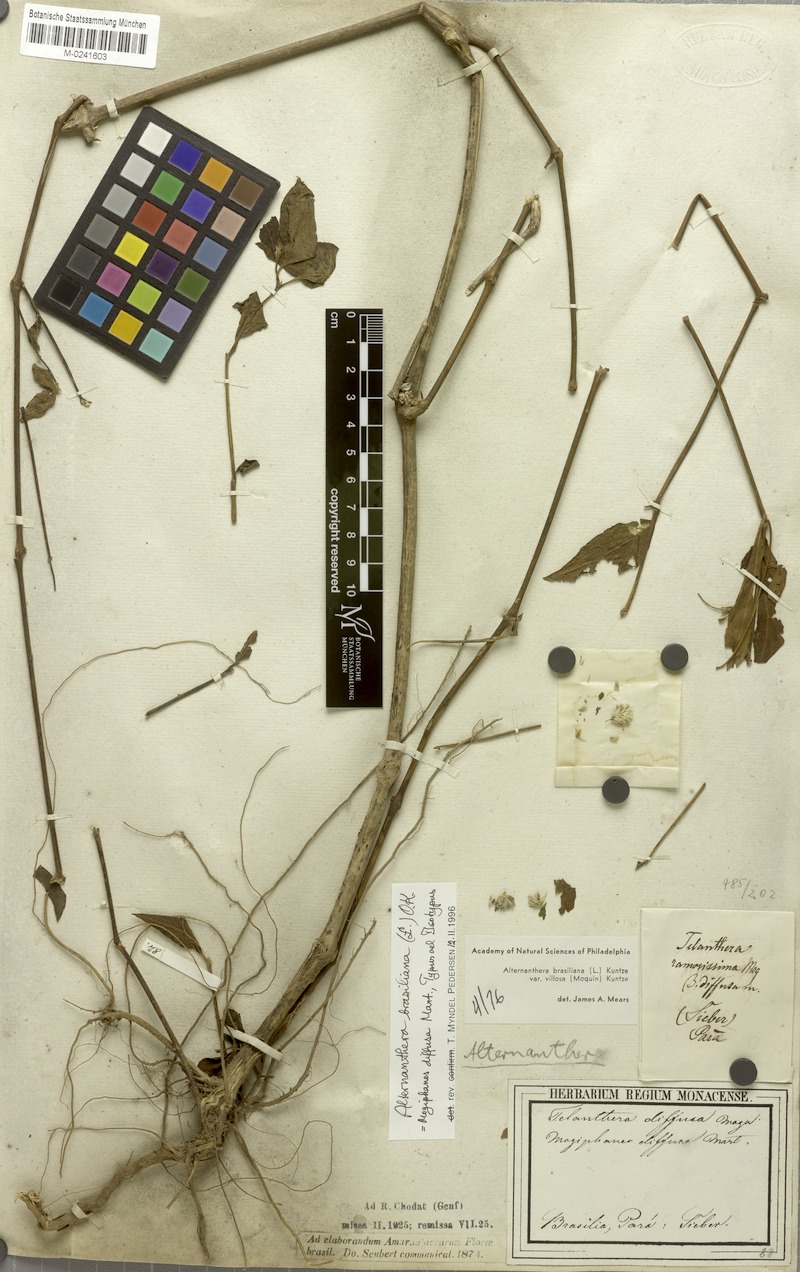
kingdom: Plantae
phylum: Tracheophyta
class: Magnoliopsida
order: Caryophyllales
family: Amaranthaceae
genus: Alternanthera
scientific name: Alternanthera brasiliana
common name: Brazilian joyweed
